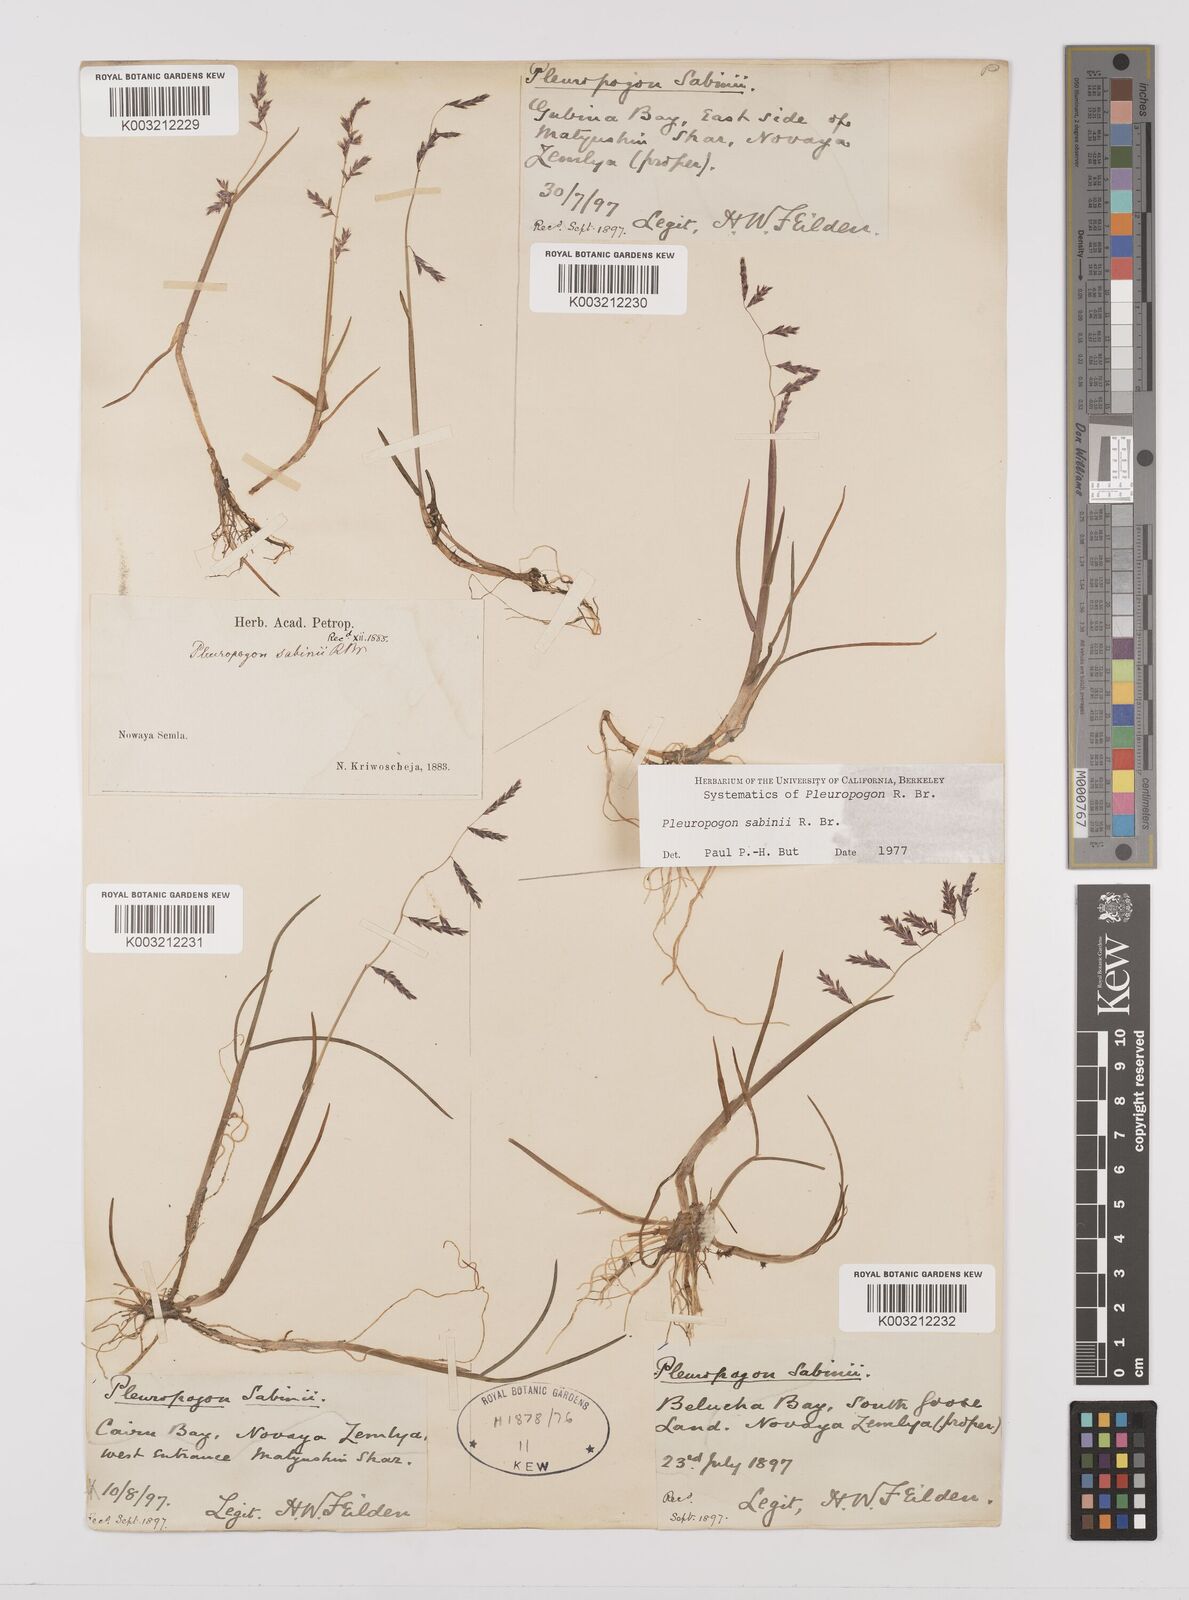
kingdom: Plantae
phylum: Tracheophyta
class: Liliopsida
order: Poales
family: Poaceae
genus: Pleuropogon
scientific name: Pleuropogon sabinei
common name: Sabine's false semaphoregrass
